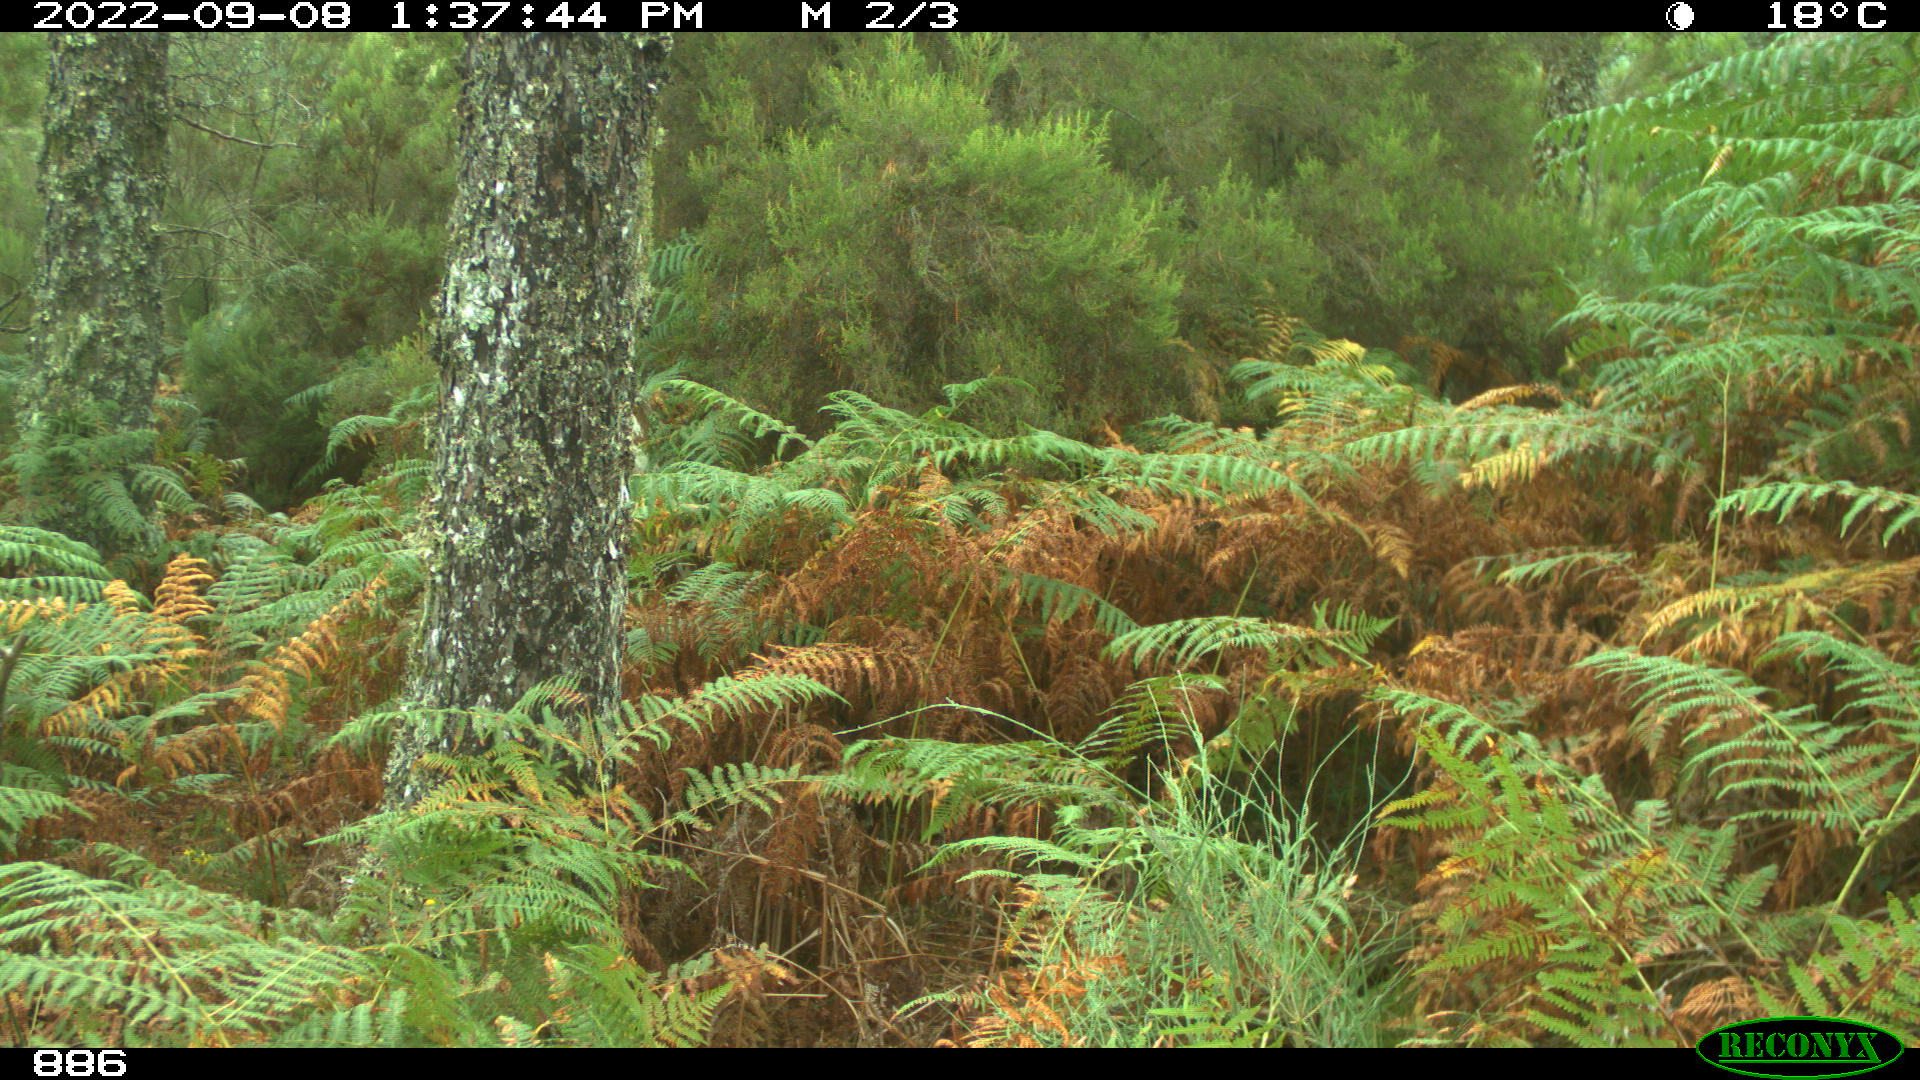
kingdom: Animalia
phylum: Chordata
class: Mammalia
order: Perissodactyla
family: Equidae
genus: Equus
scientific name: Equus caballus
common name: Horse
